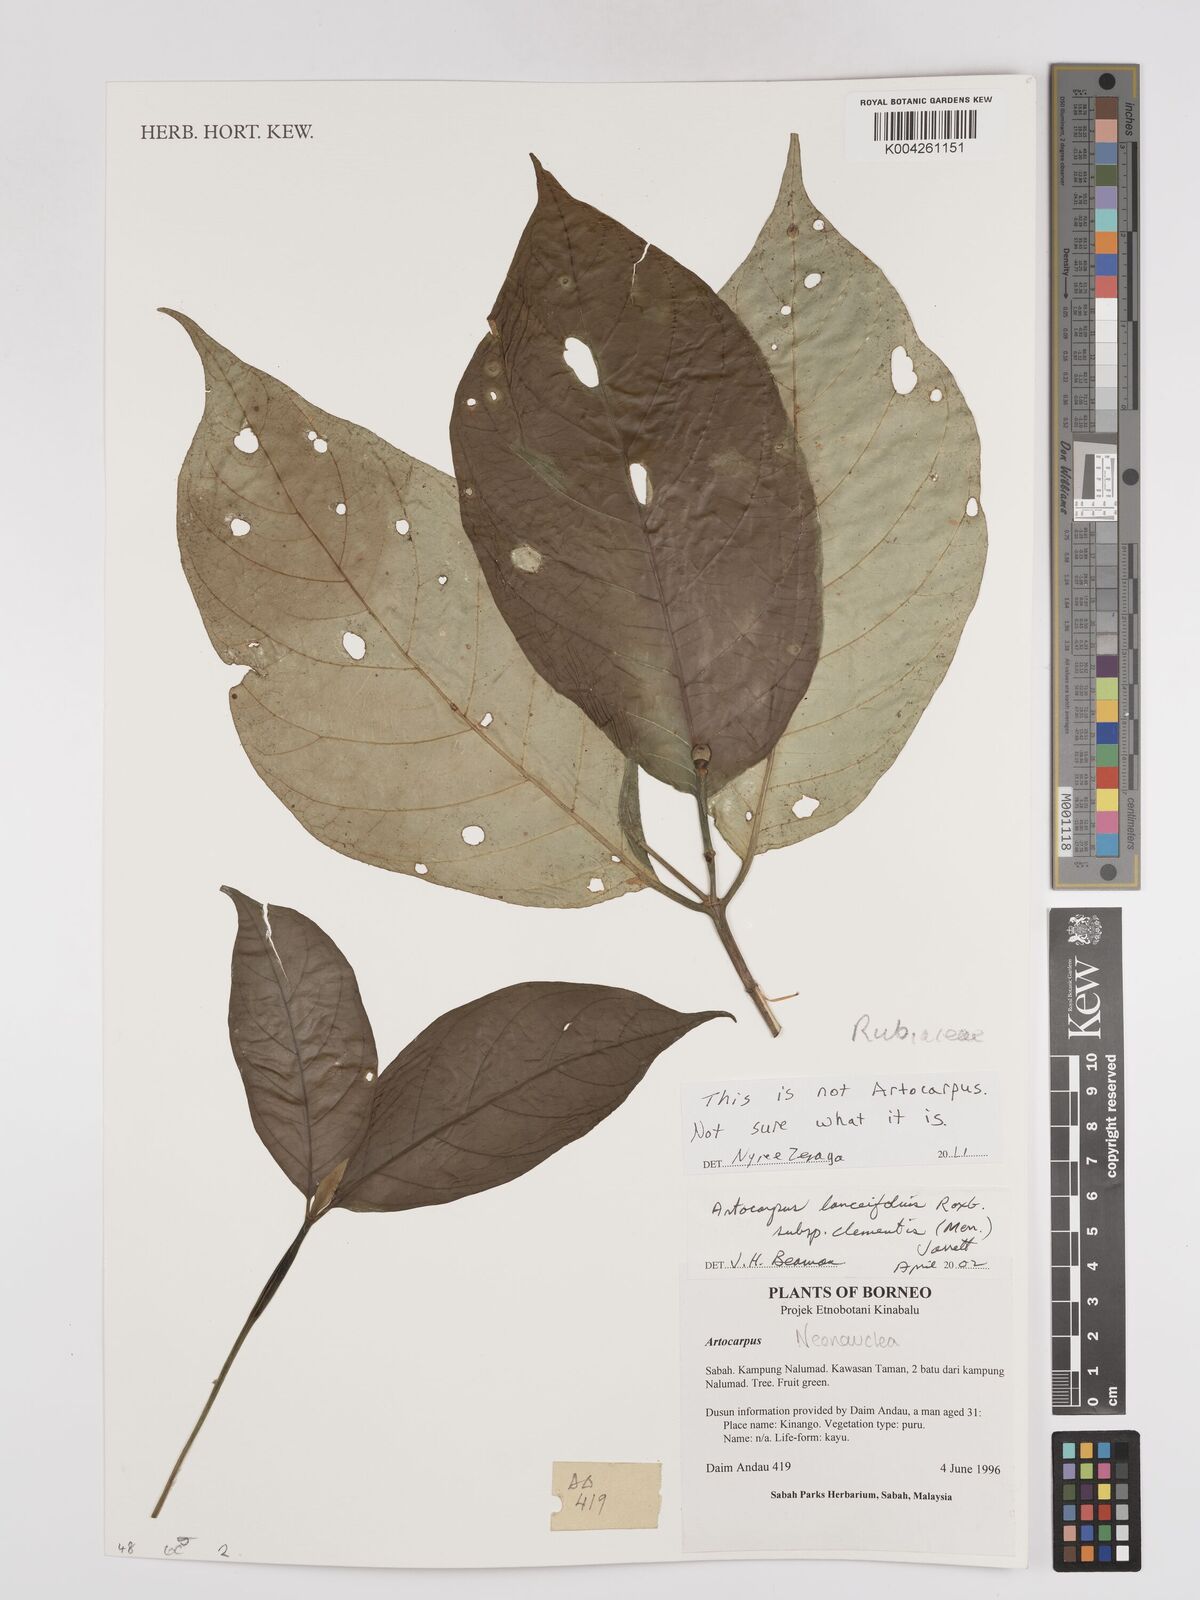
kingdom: Plantae
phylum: Tracheophyta
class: Magnoliopsida
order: Gentianales
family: Rubiaceae
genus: Neonauclea
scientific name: Neonauclea
